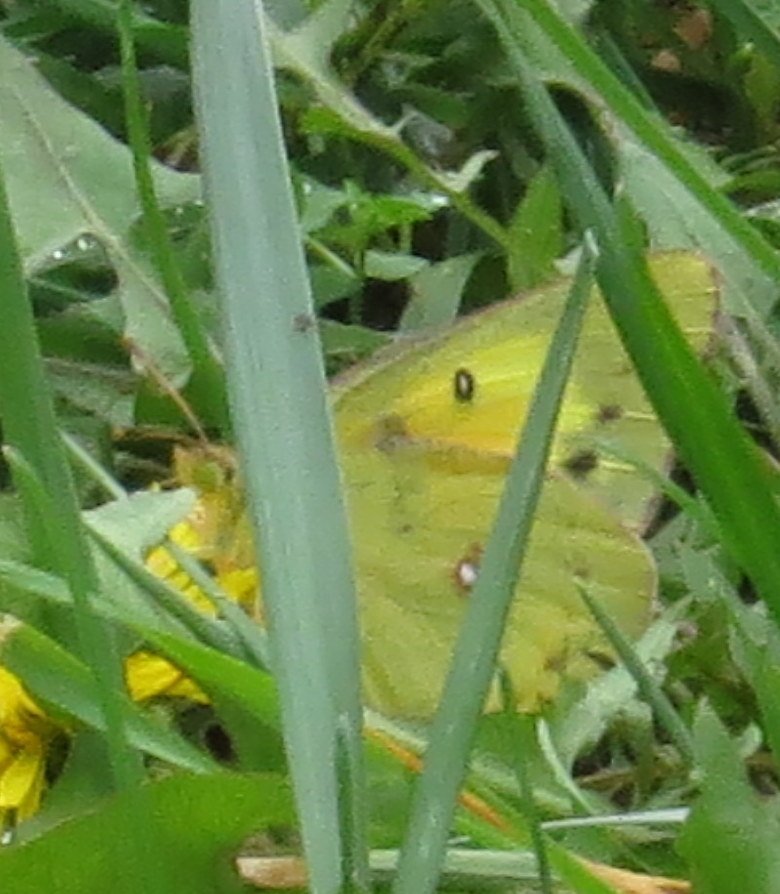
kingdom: Animalia
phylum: Arthropoda
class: Insecta
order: Lepidoptera
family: Pieridae
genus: Colias
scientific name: Colias eurytheme
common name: Orange Sulphur
